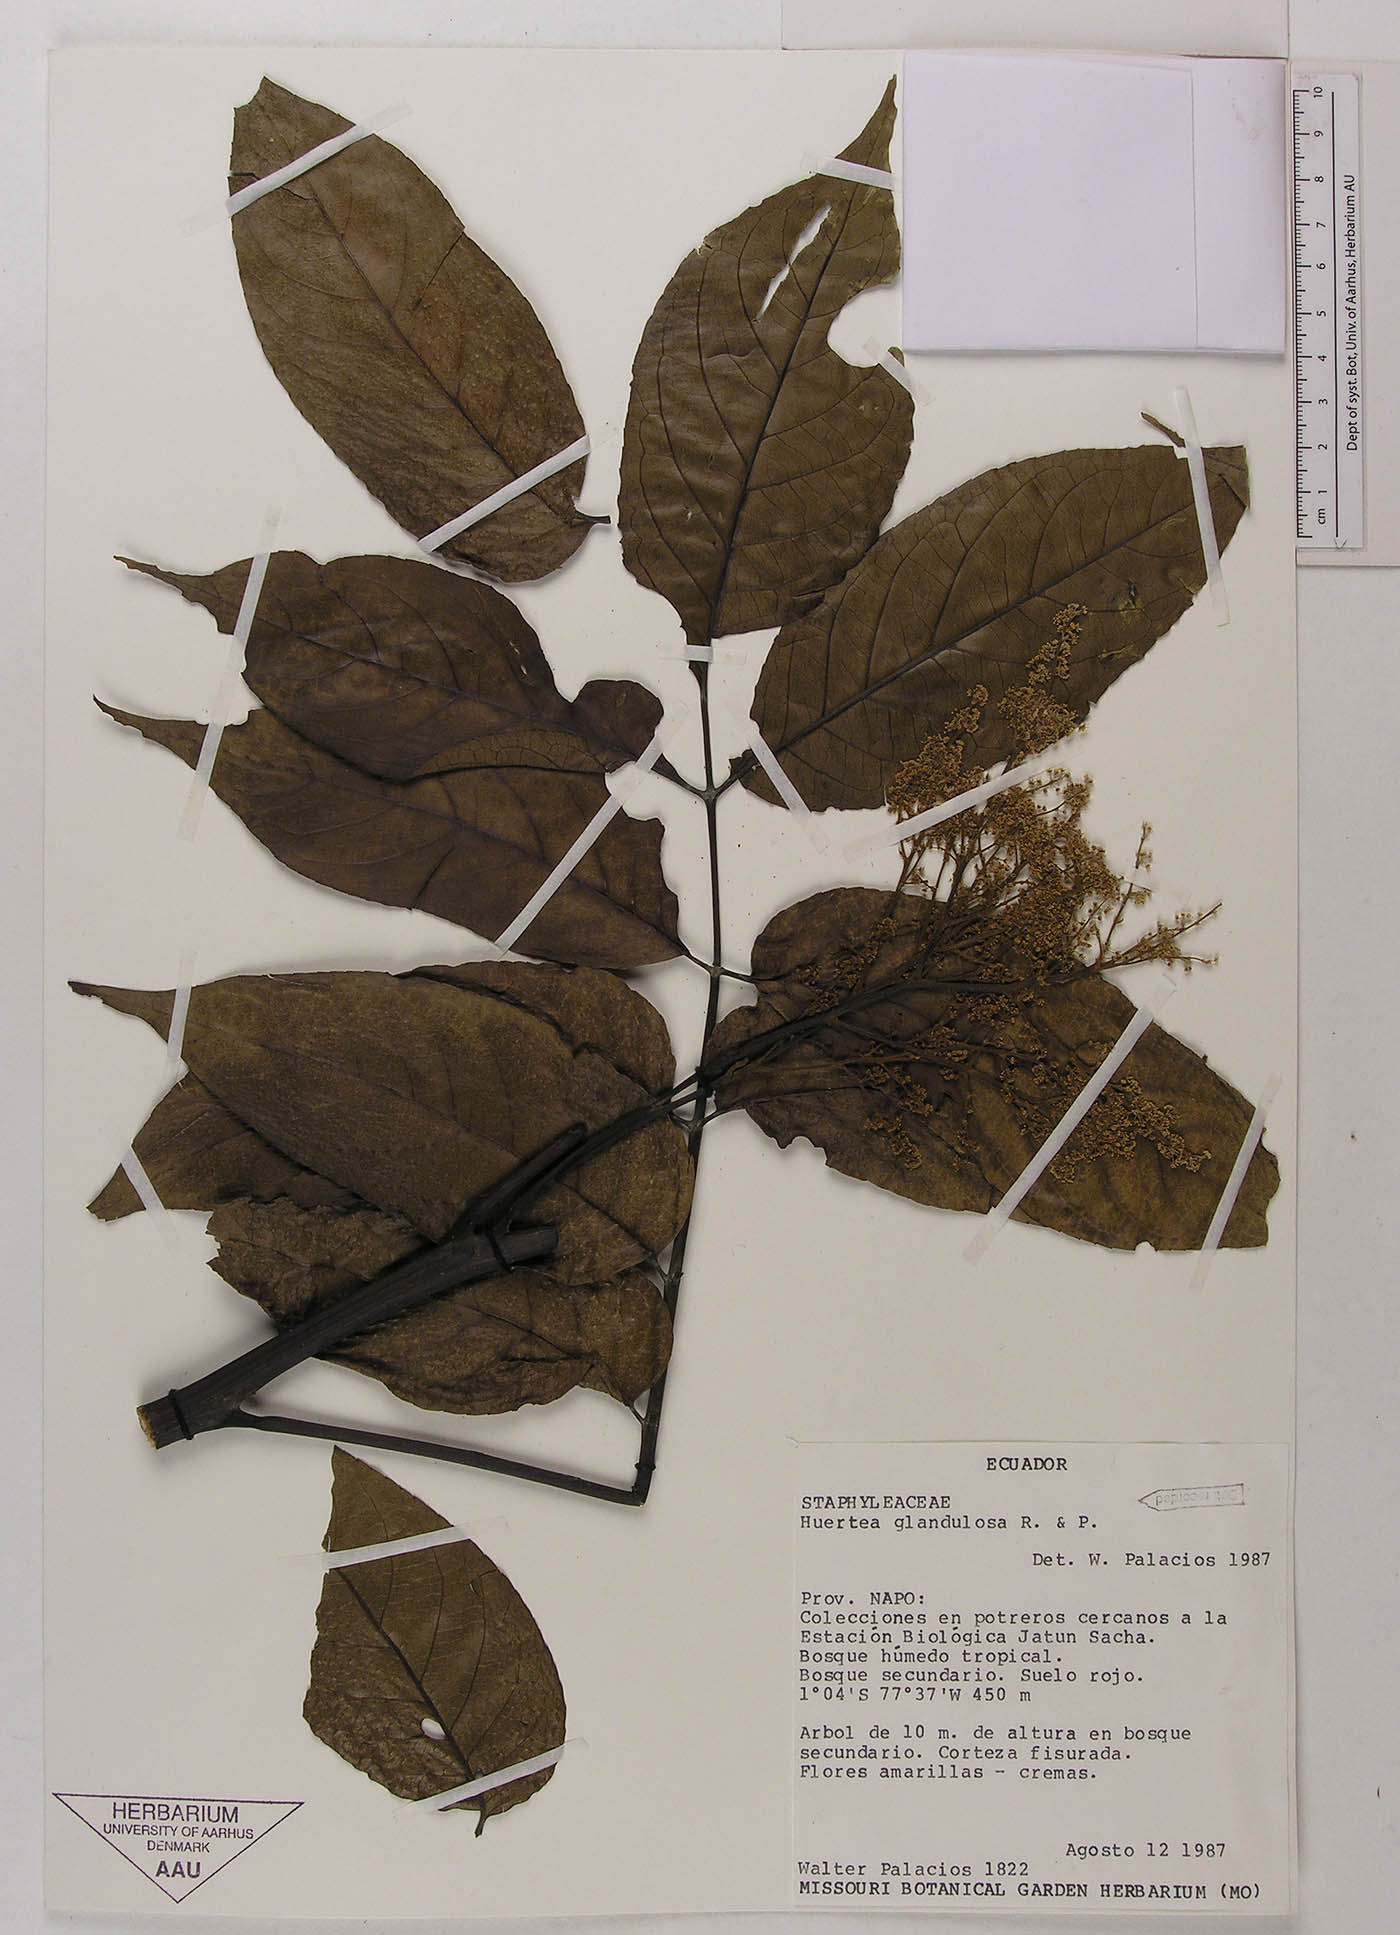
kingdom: Plantae
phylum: Tracheophyta
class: Magnoliopsida
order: Huerteales
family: Tapisciaceae
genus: Huertea
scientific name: Huertea glandulosa
